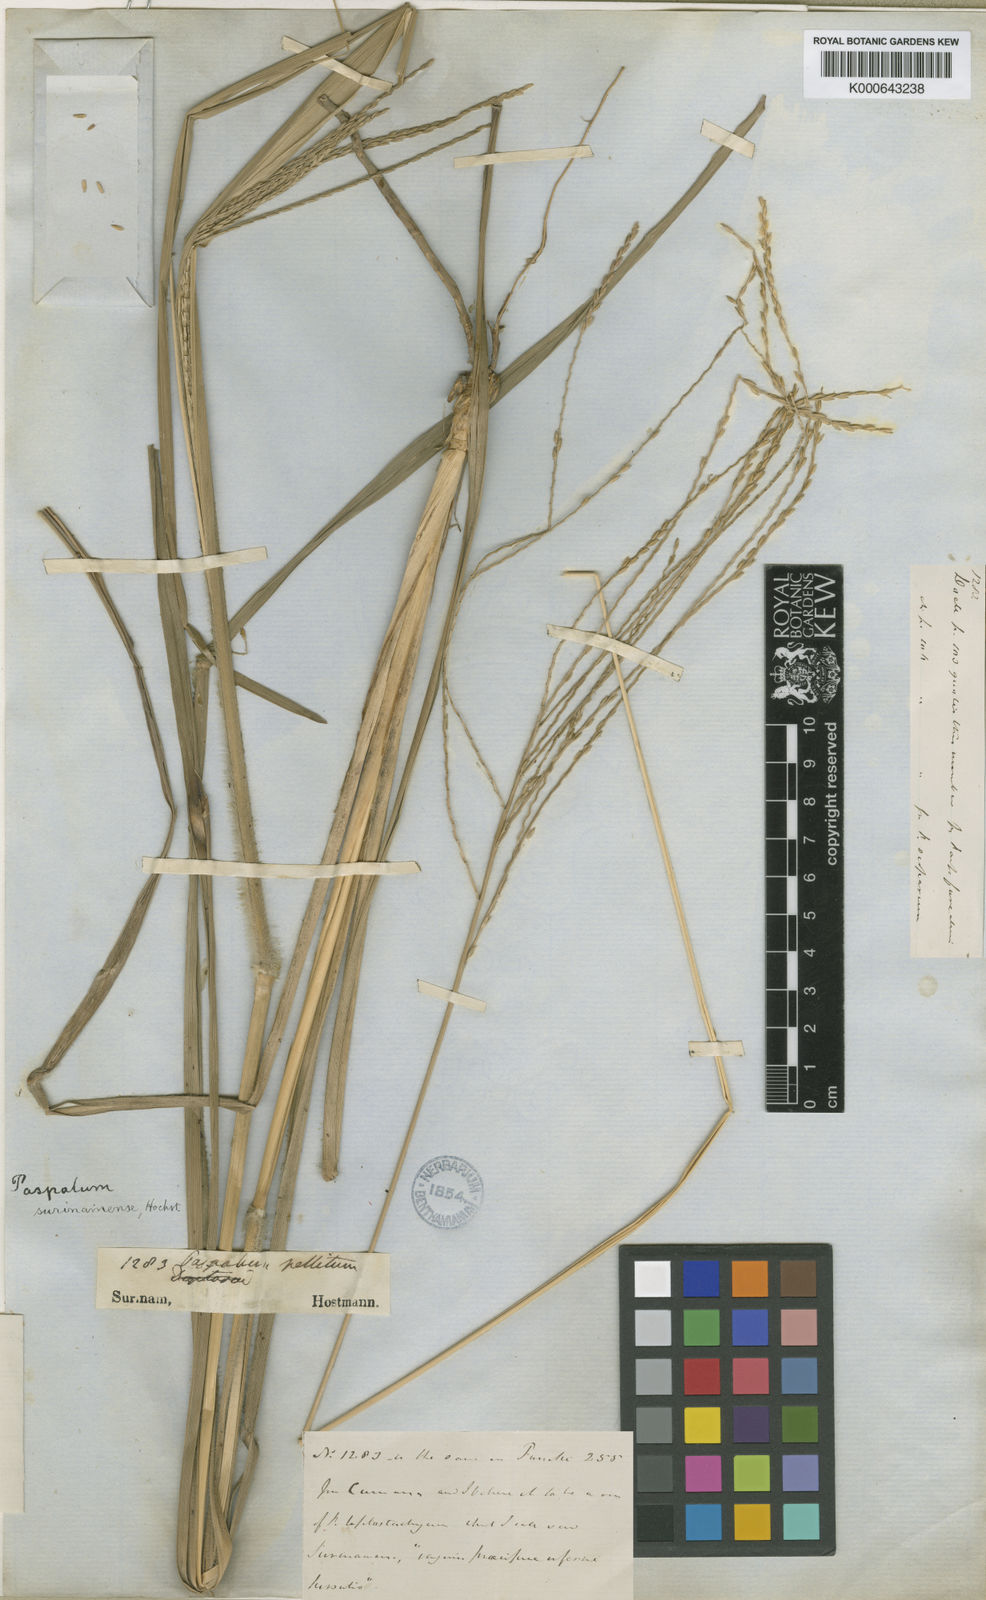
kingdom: Plantae
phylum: Tracheophyta
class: Liliopsida
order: Poales
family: Poaceae
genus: Axonopus
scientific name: Axonopus surinamensis
